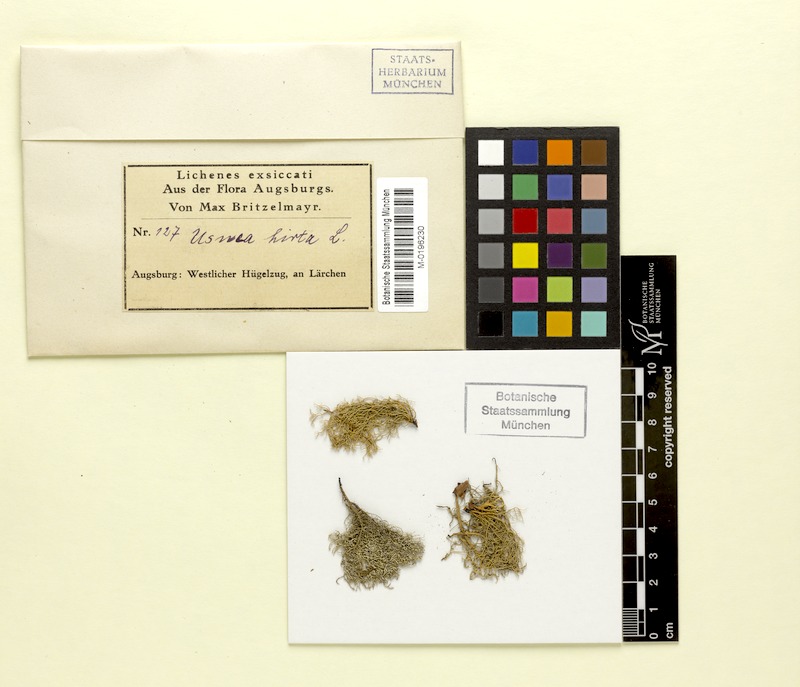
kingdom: Fungi
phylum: Ascomycota
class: Lecanoromycetes
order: Lecanorales
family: Parmeliaceae
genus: Usnea
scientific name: Usnea hirta
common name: Bristly beard lichen
